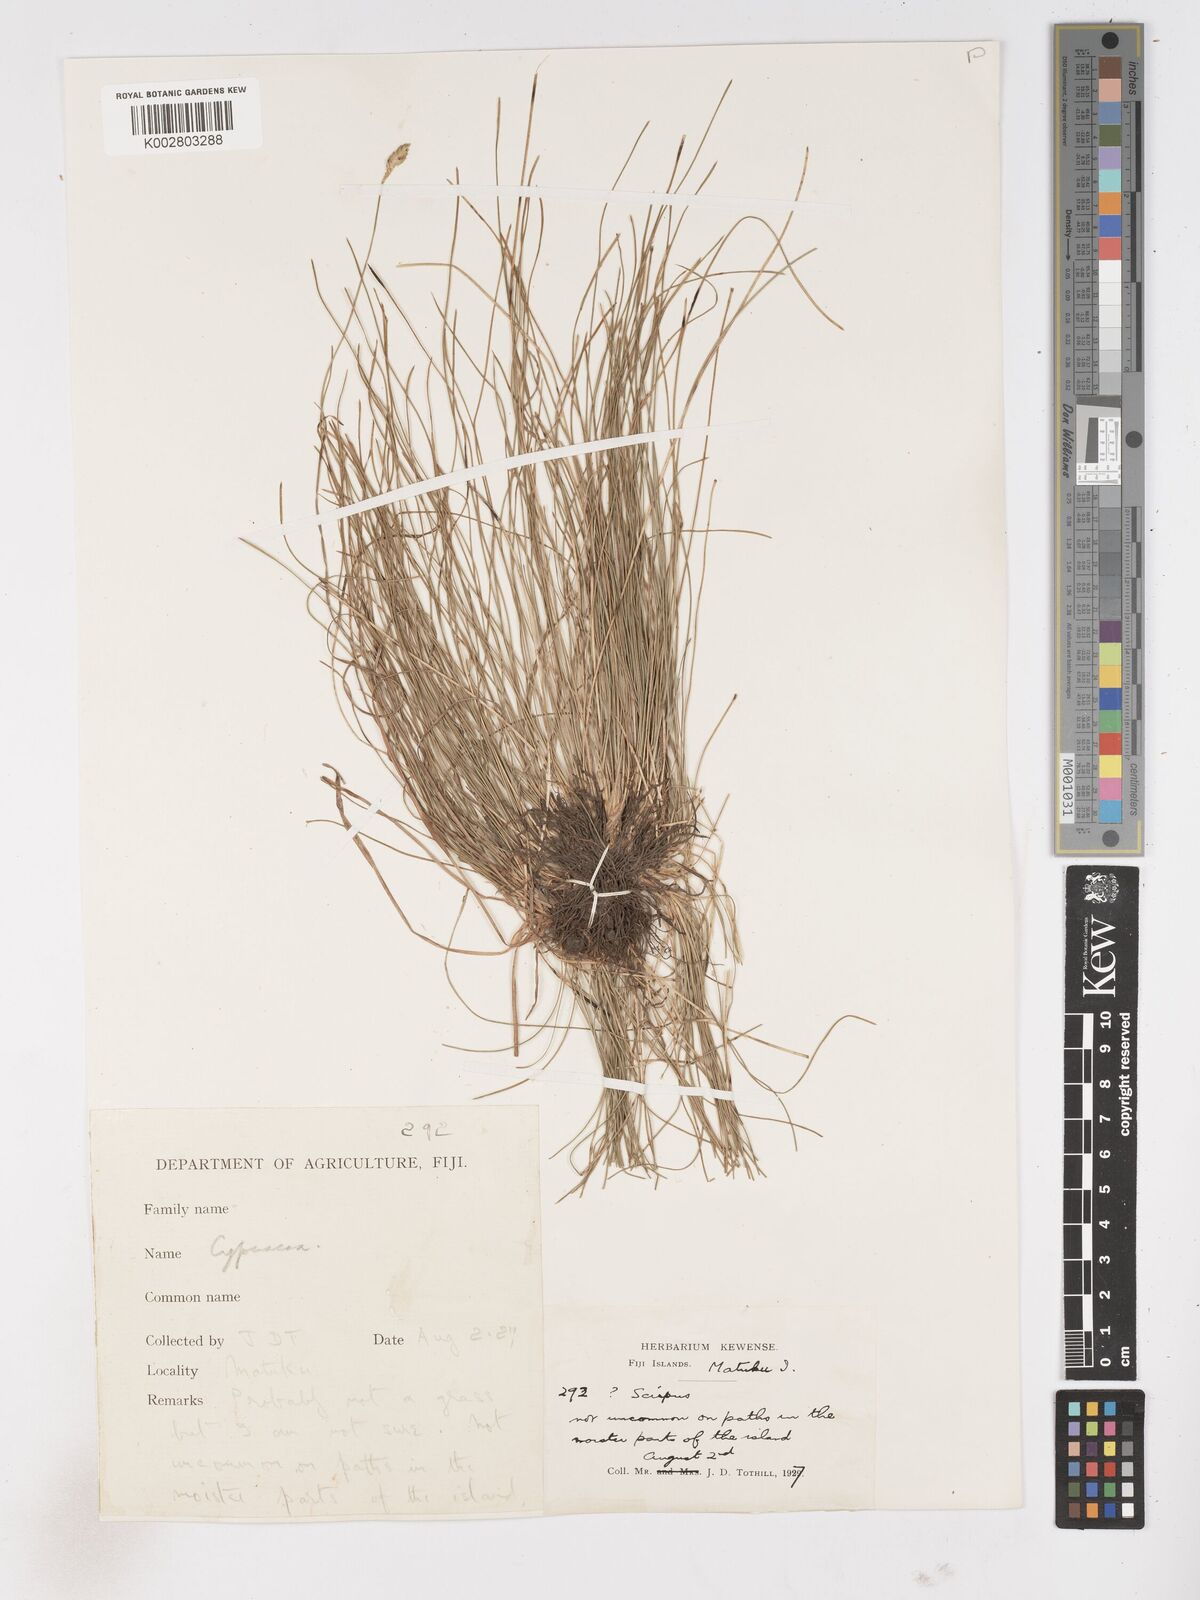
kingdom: Plantae
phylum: Tracheophyta
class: Liliopsida
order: Poales
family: Cyperaceae
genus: Abildgaardia
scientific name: Abildgaardia ovata
